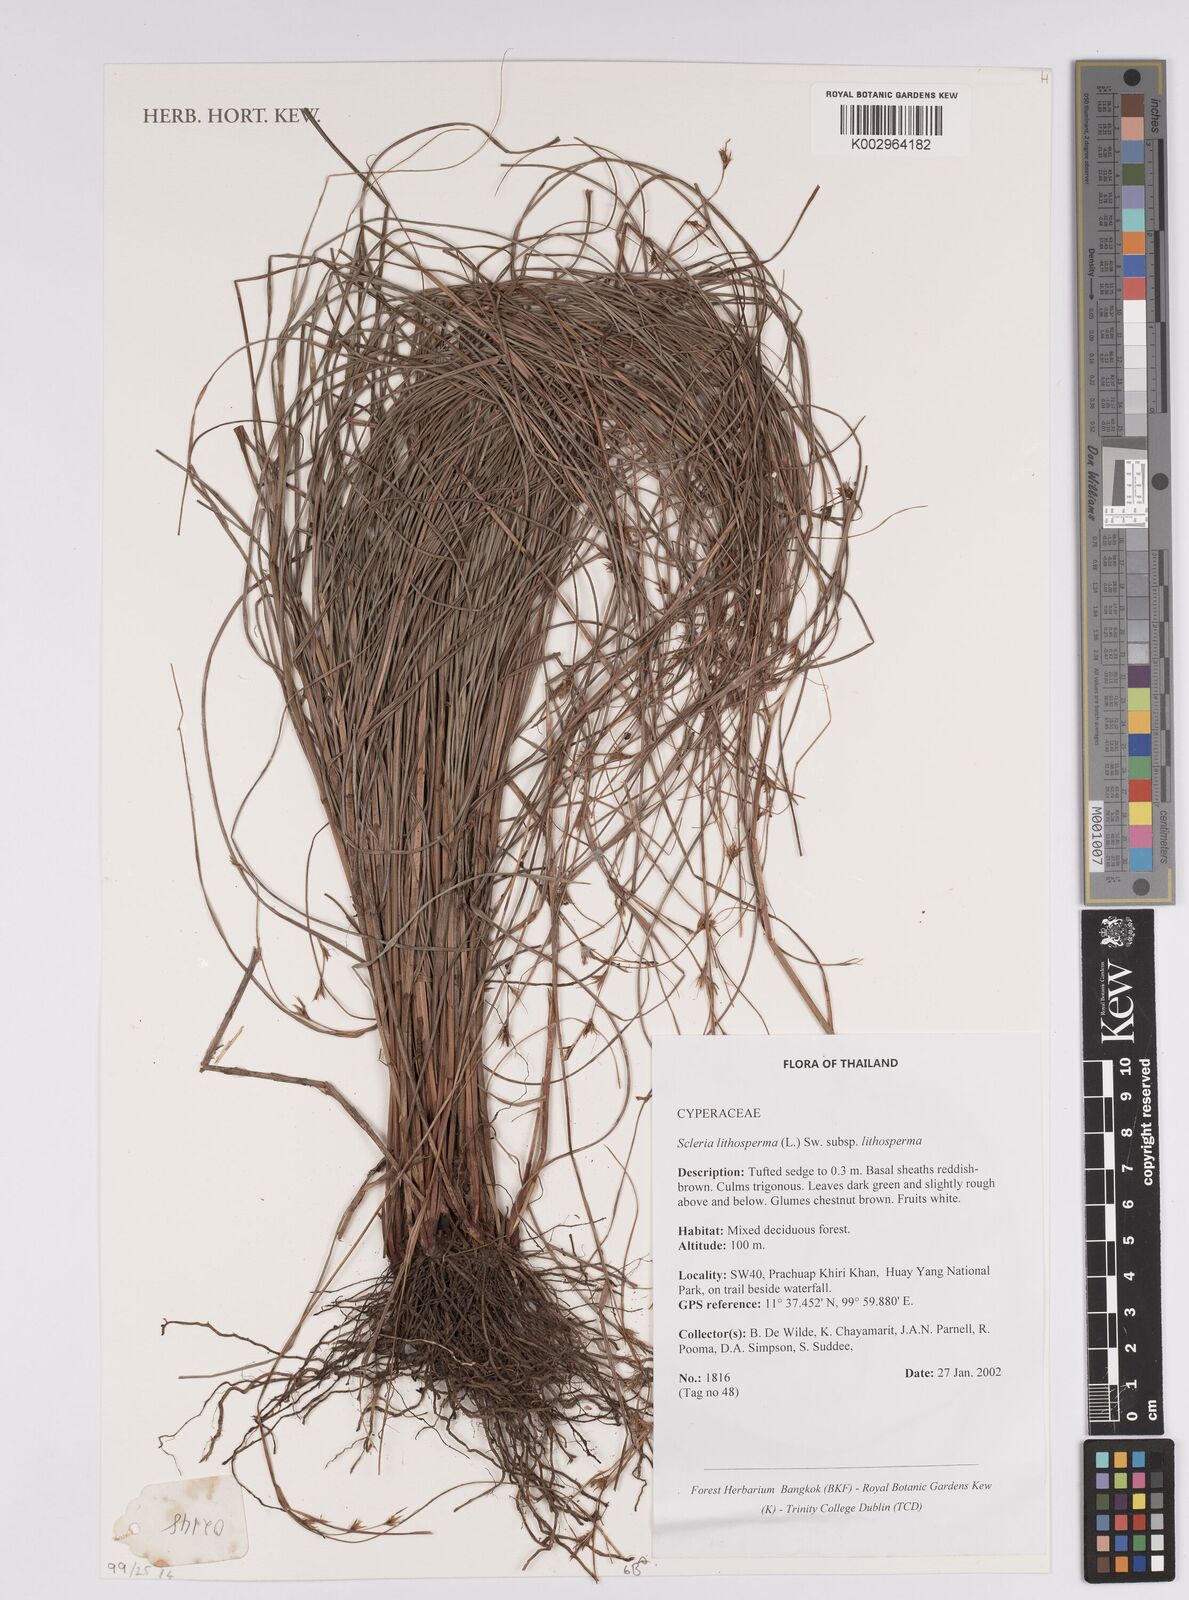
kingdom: Plantae
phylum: Tracheophyta
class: Liliopsida
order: Poales
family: Cyperaceae
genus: Scleria
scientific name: Scleria lithosperma
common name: Florida keys nut-rush
